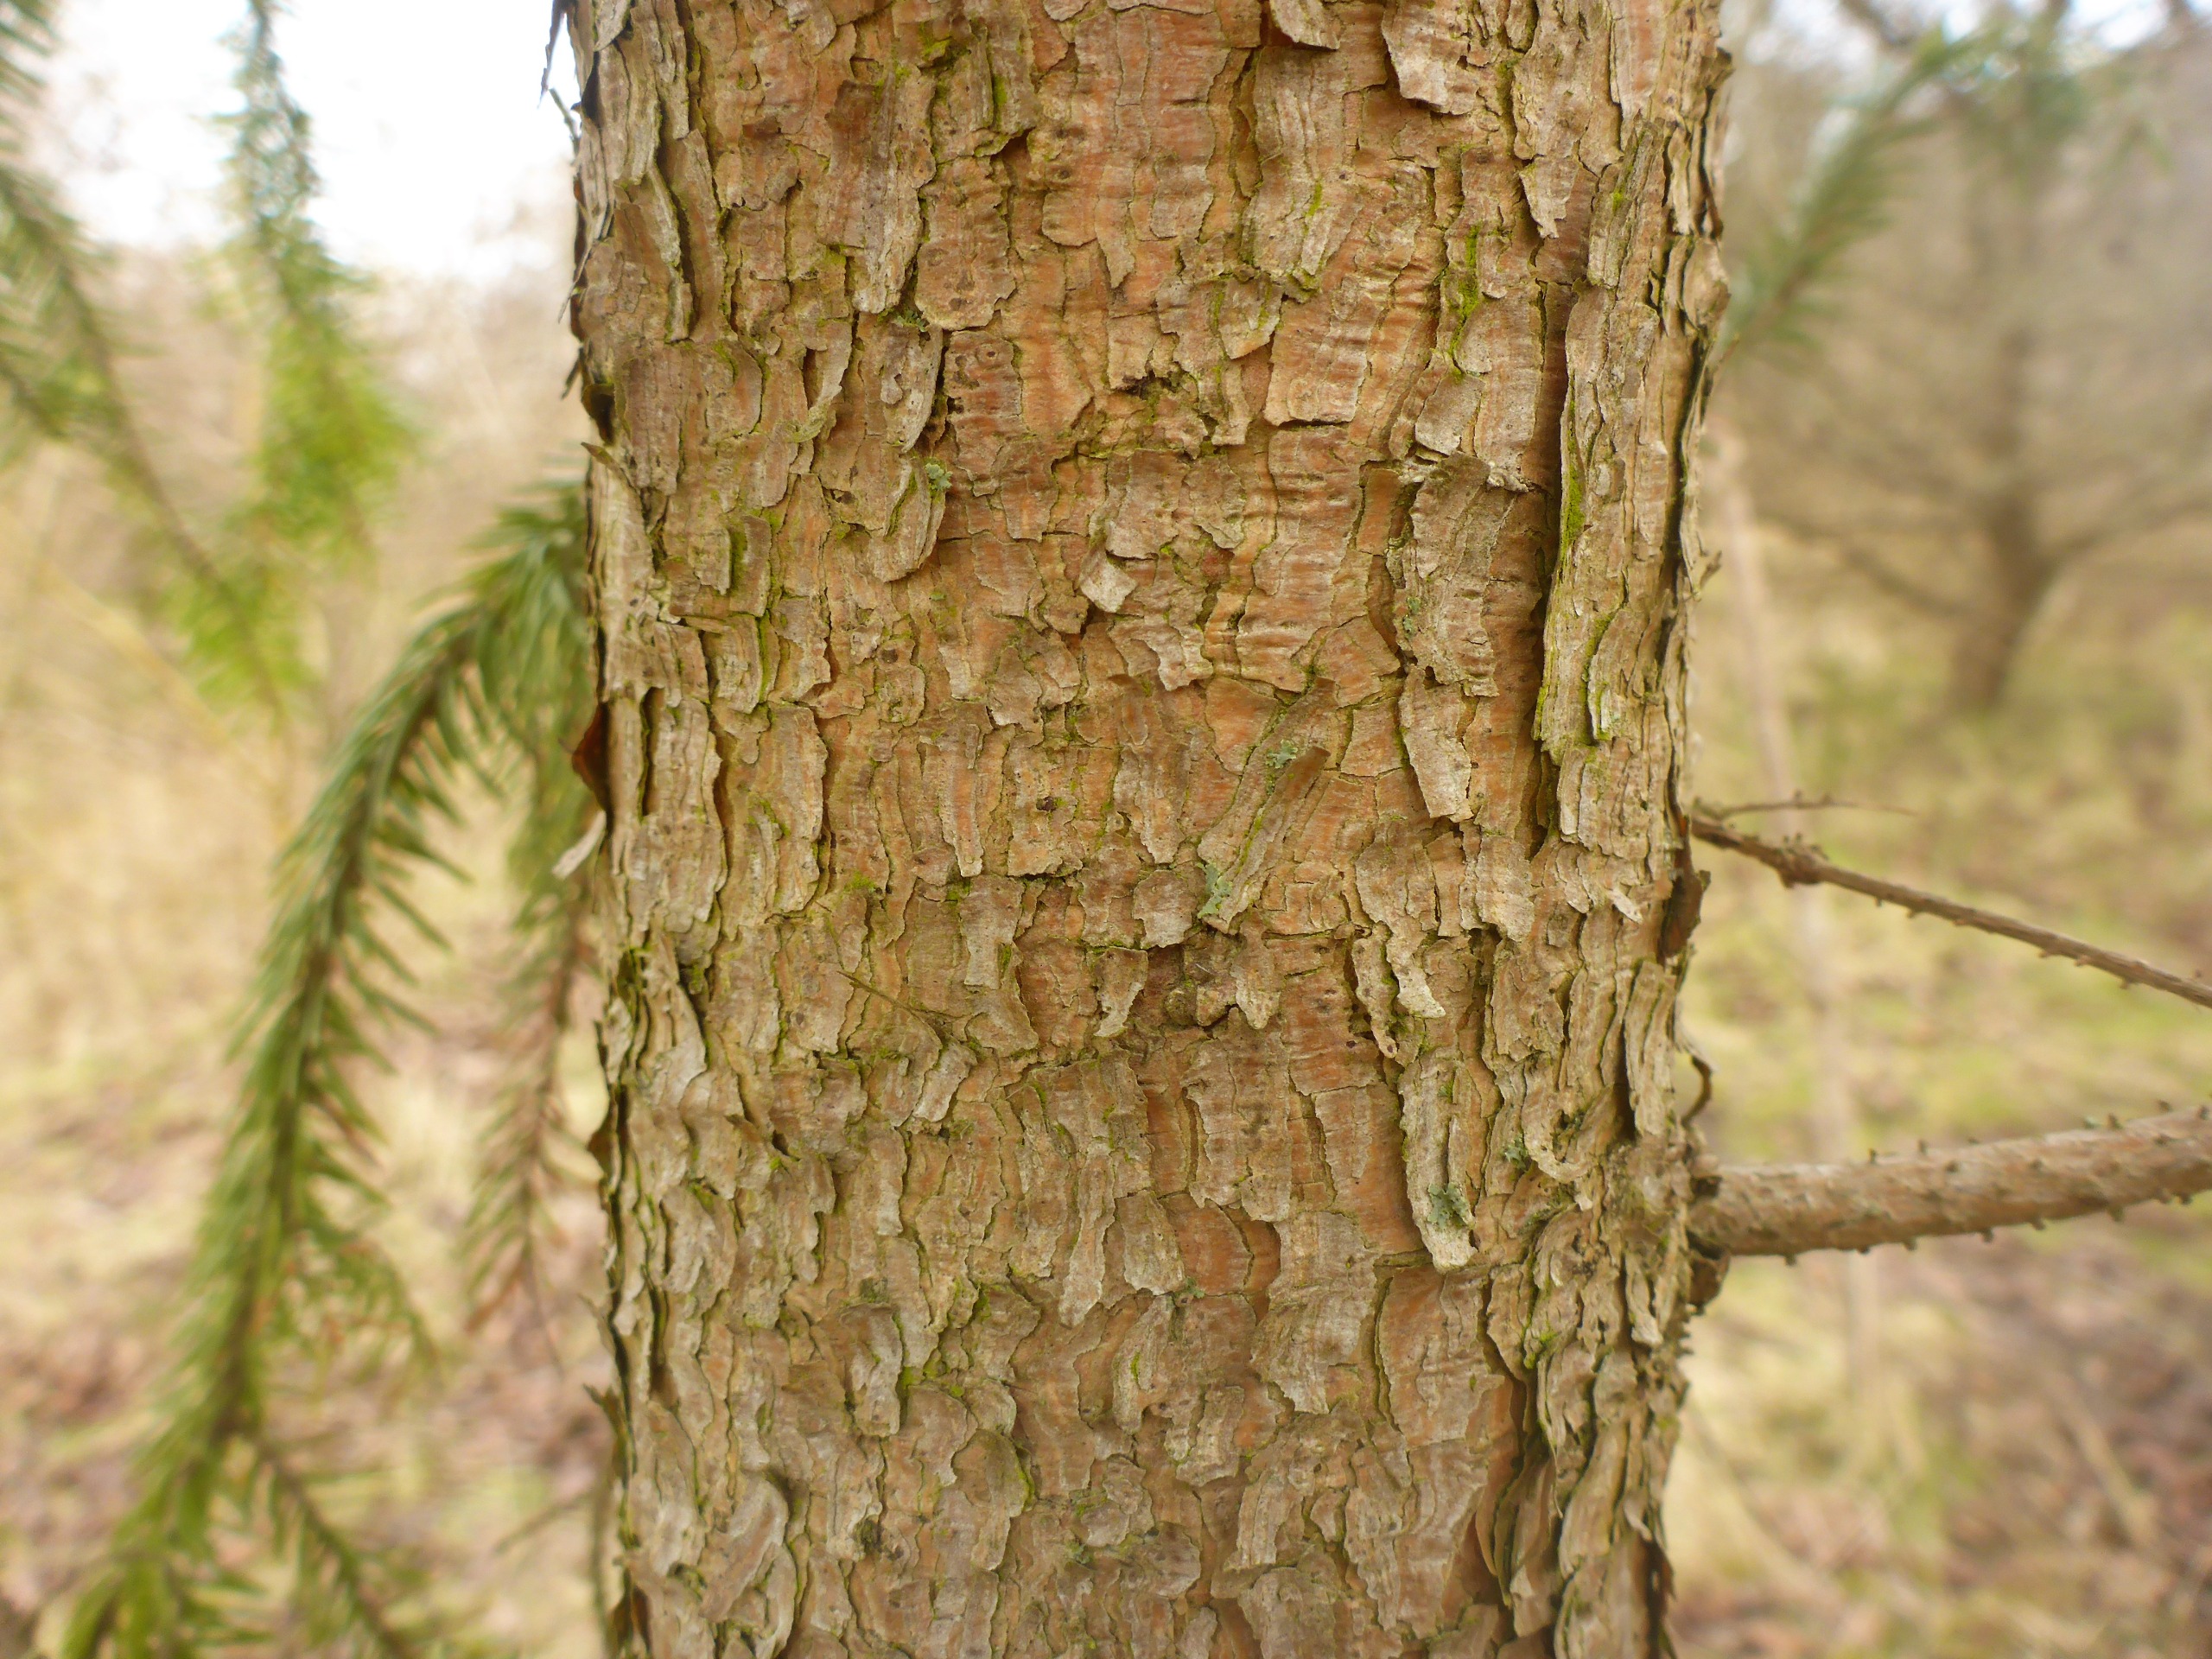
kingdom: Plantae
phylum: Tracheophyta
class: Pinopsida
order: Pinales
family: Pinaceae
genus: Picea
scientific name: Picea abies
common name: Rød-gran
